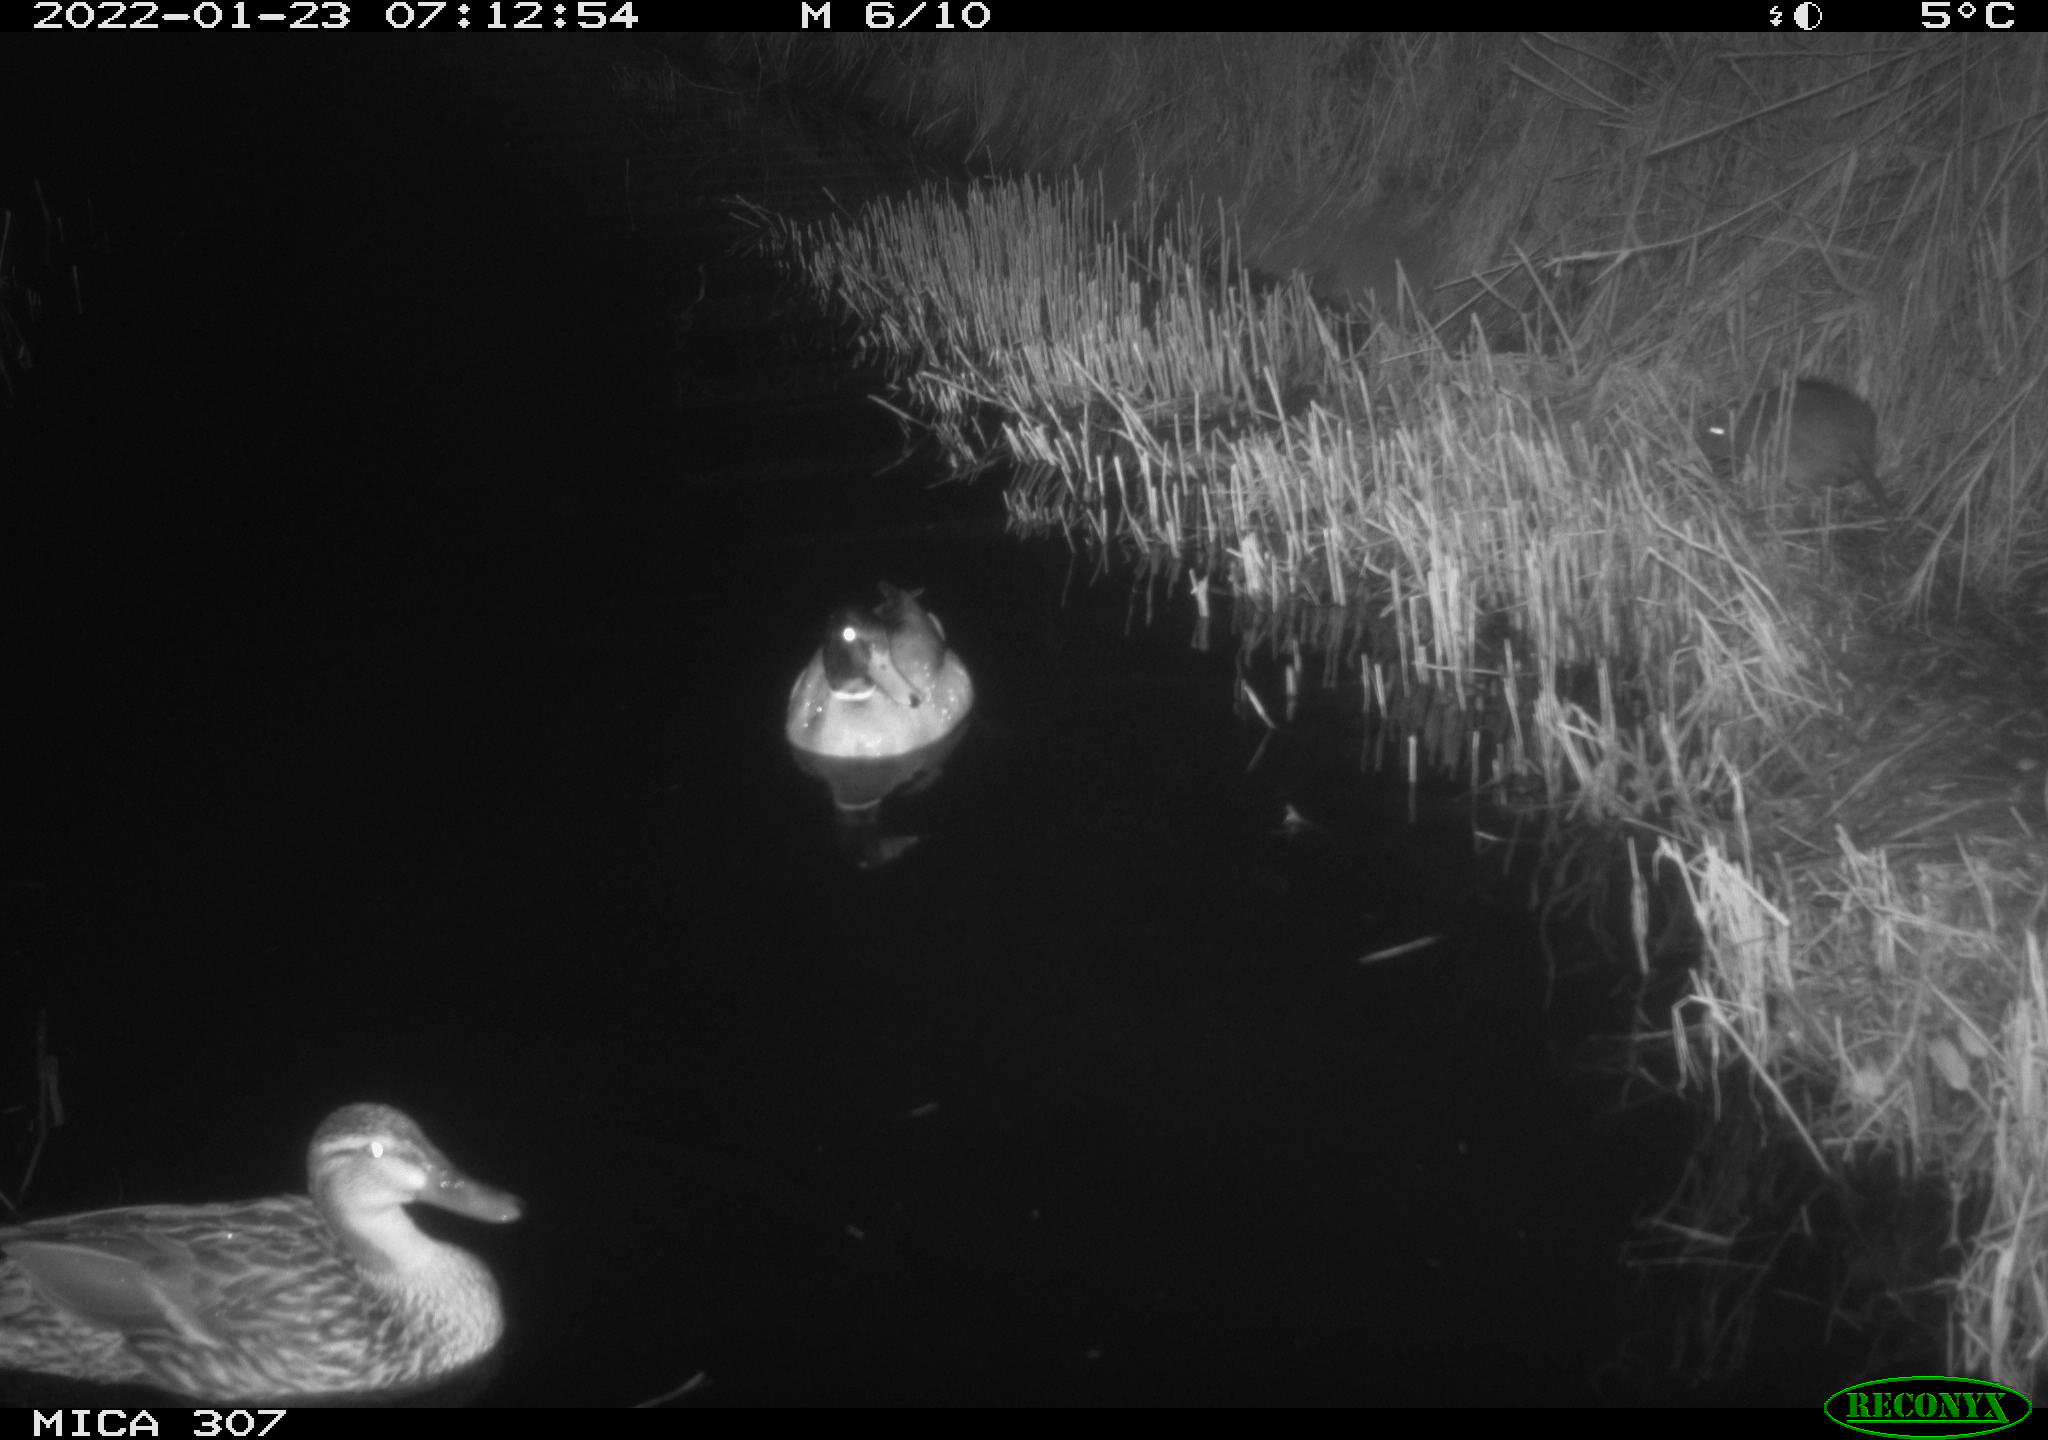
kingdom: Animalia
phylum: Chordata
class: Aves
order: Anseriformes
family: Anatidae
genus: Anas
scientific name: Anas platyrhynchos
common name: Mallard
